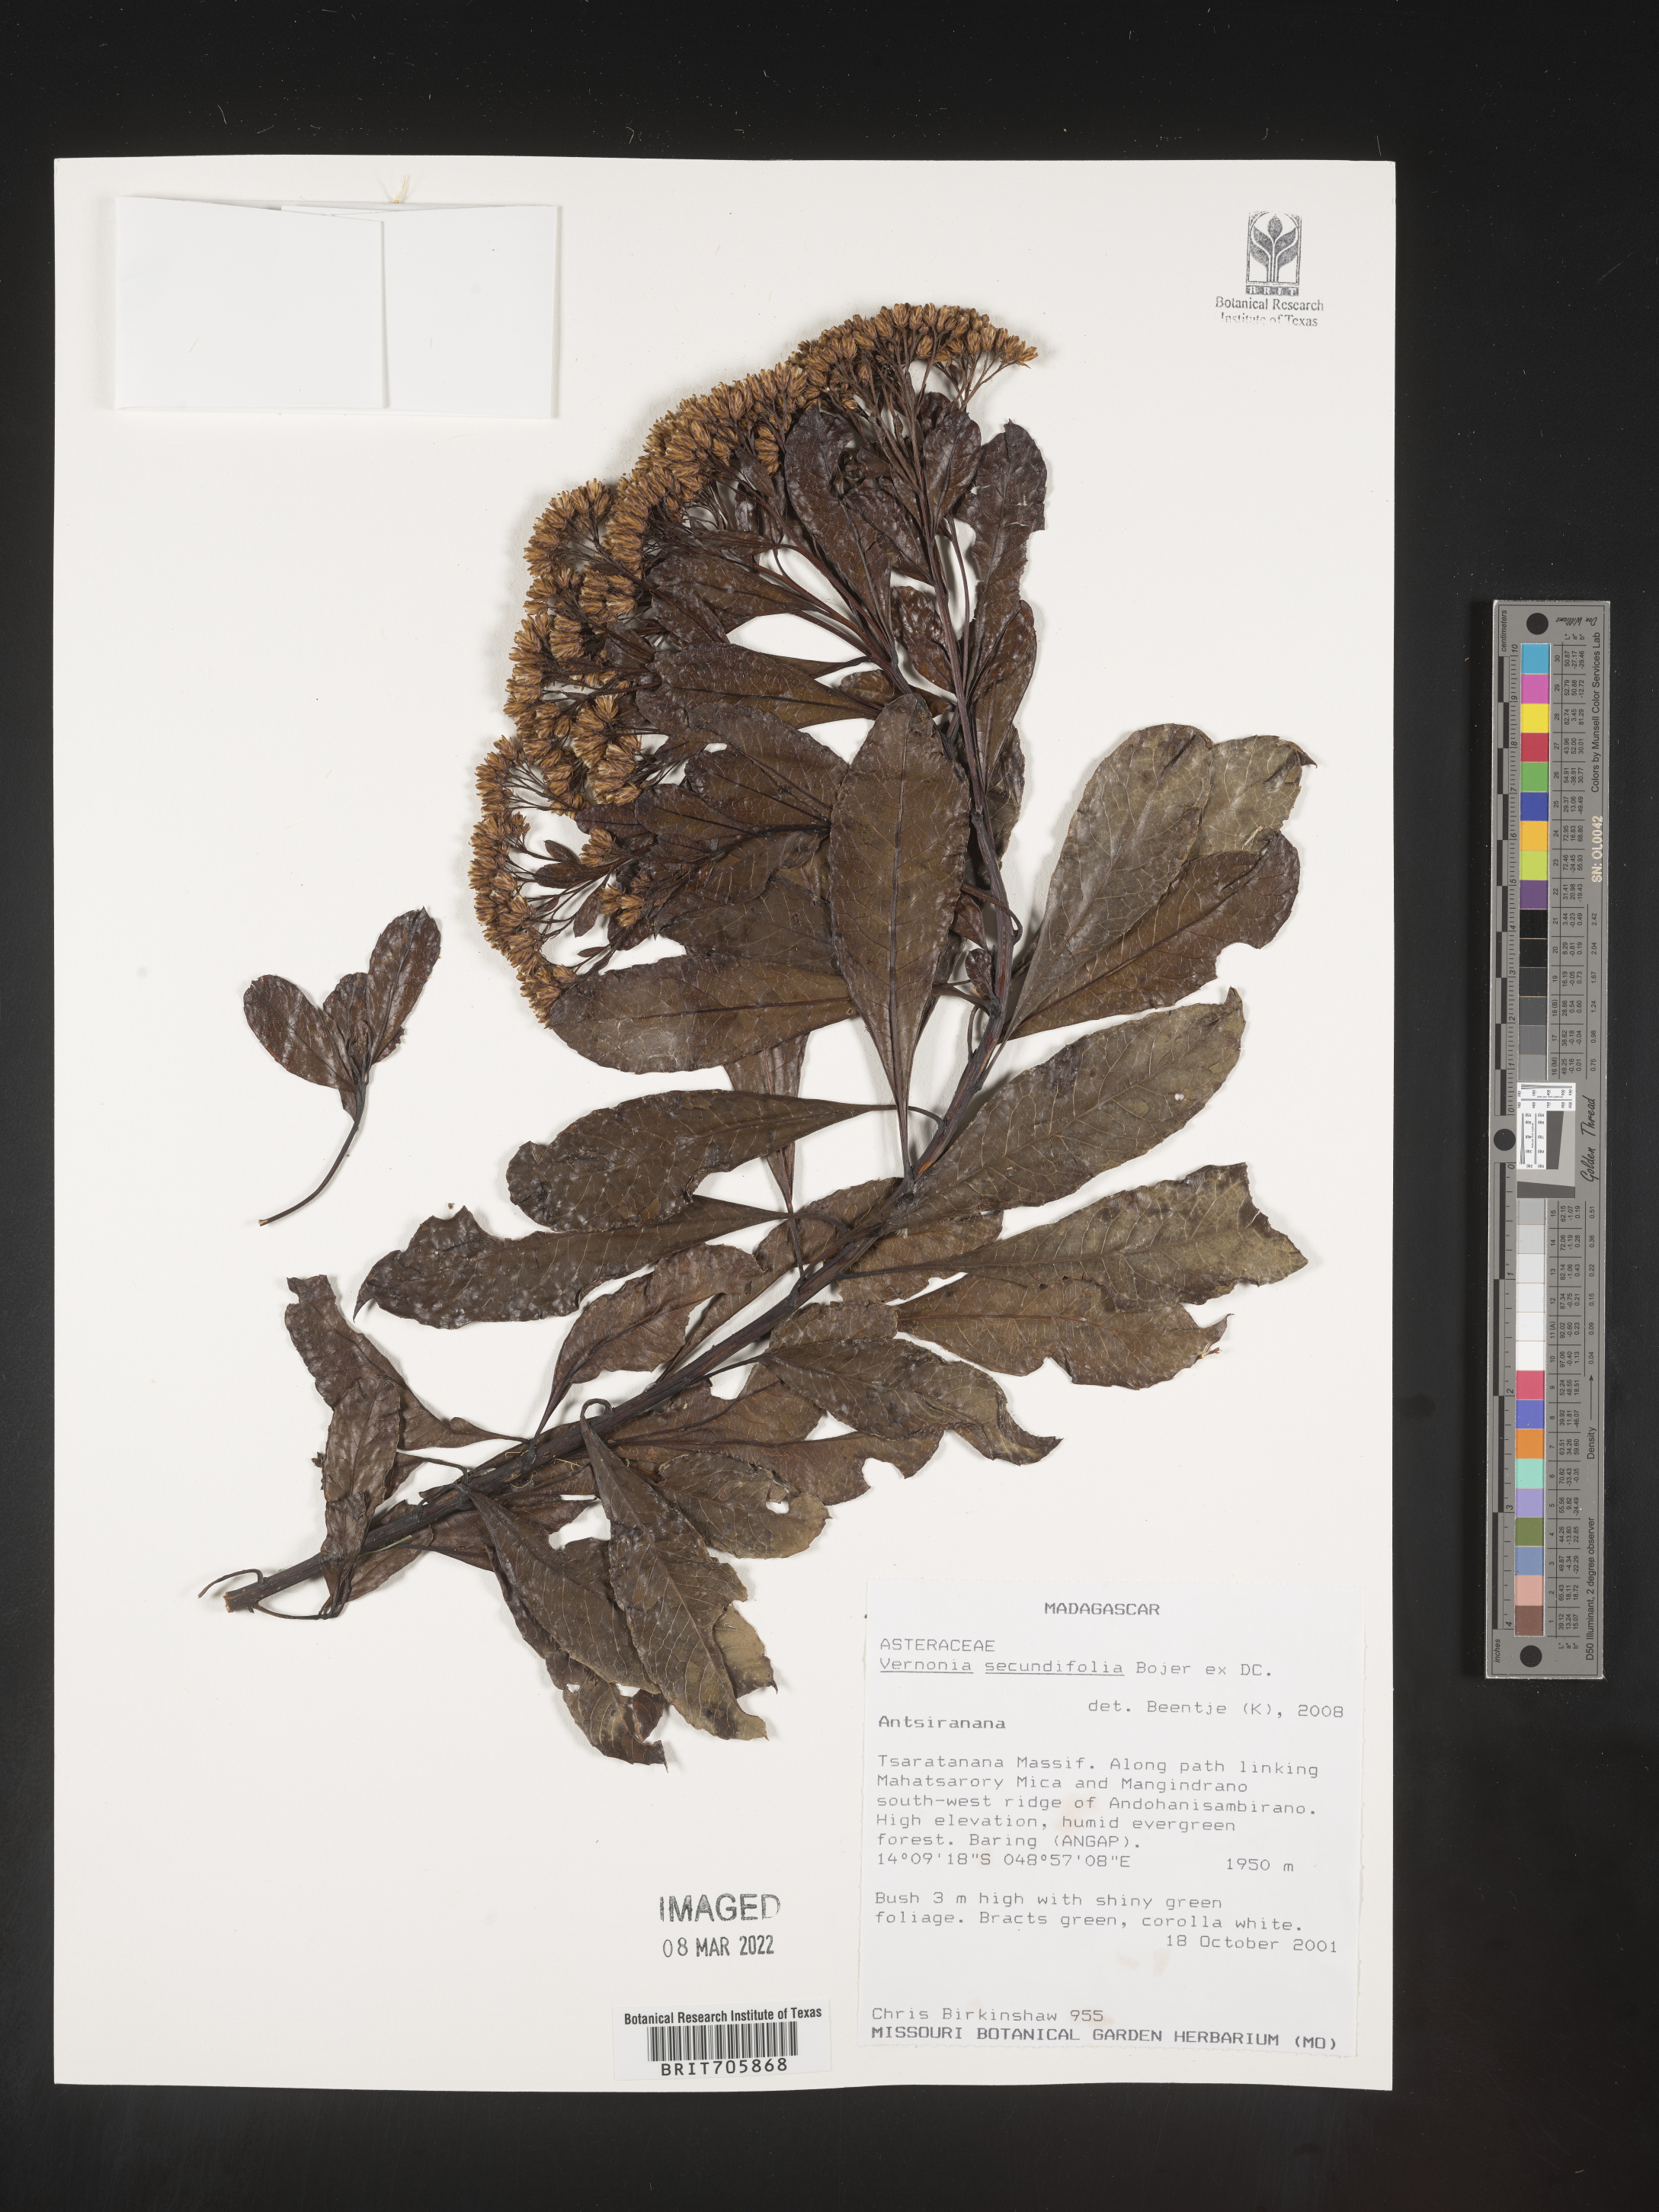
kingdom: Plantae
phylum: Tracheophyta
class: Magnoliopsida
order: Asterales
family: Asteraceae
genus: Vernonia
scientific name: Vernonia
